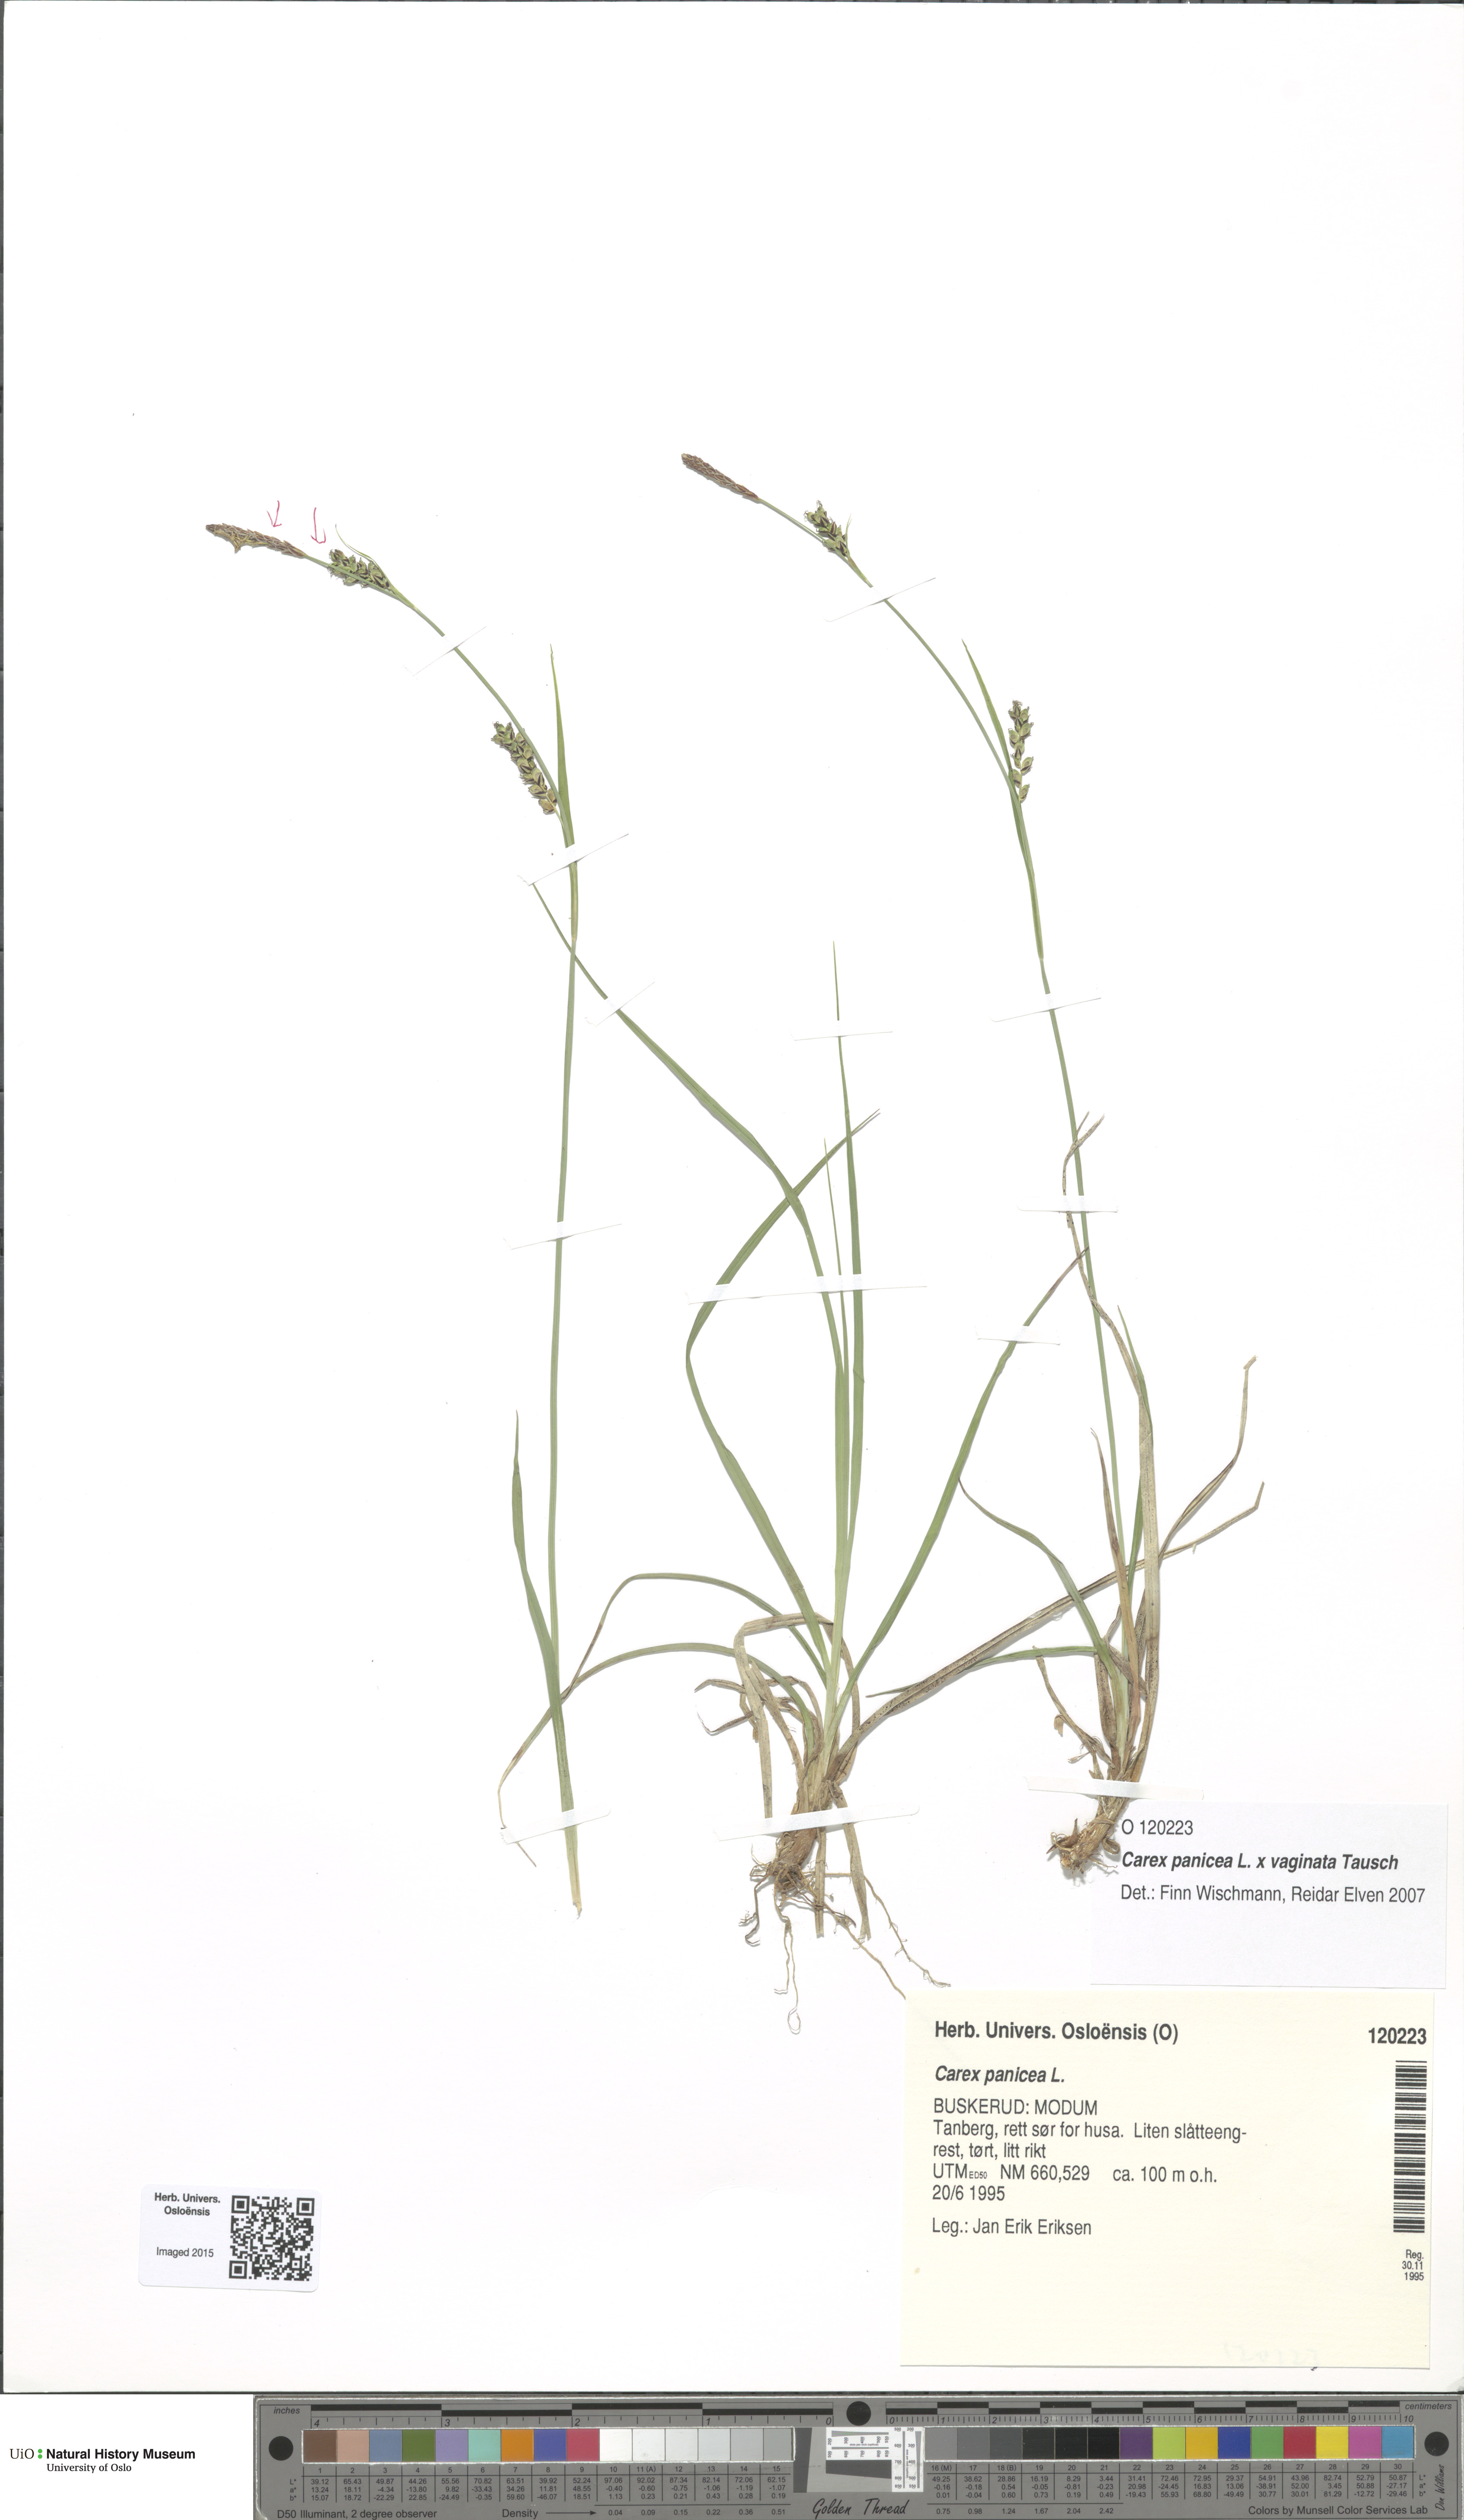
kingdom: Plantae
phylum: Tracheophyta
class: Liliopsida
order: Poales
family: Cyperaceae
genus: Carex
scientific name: Carex
